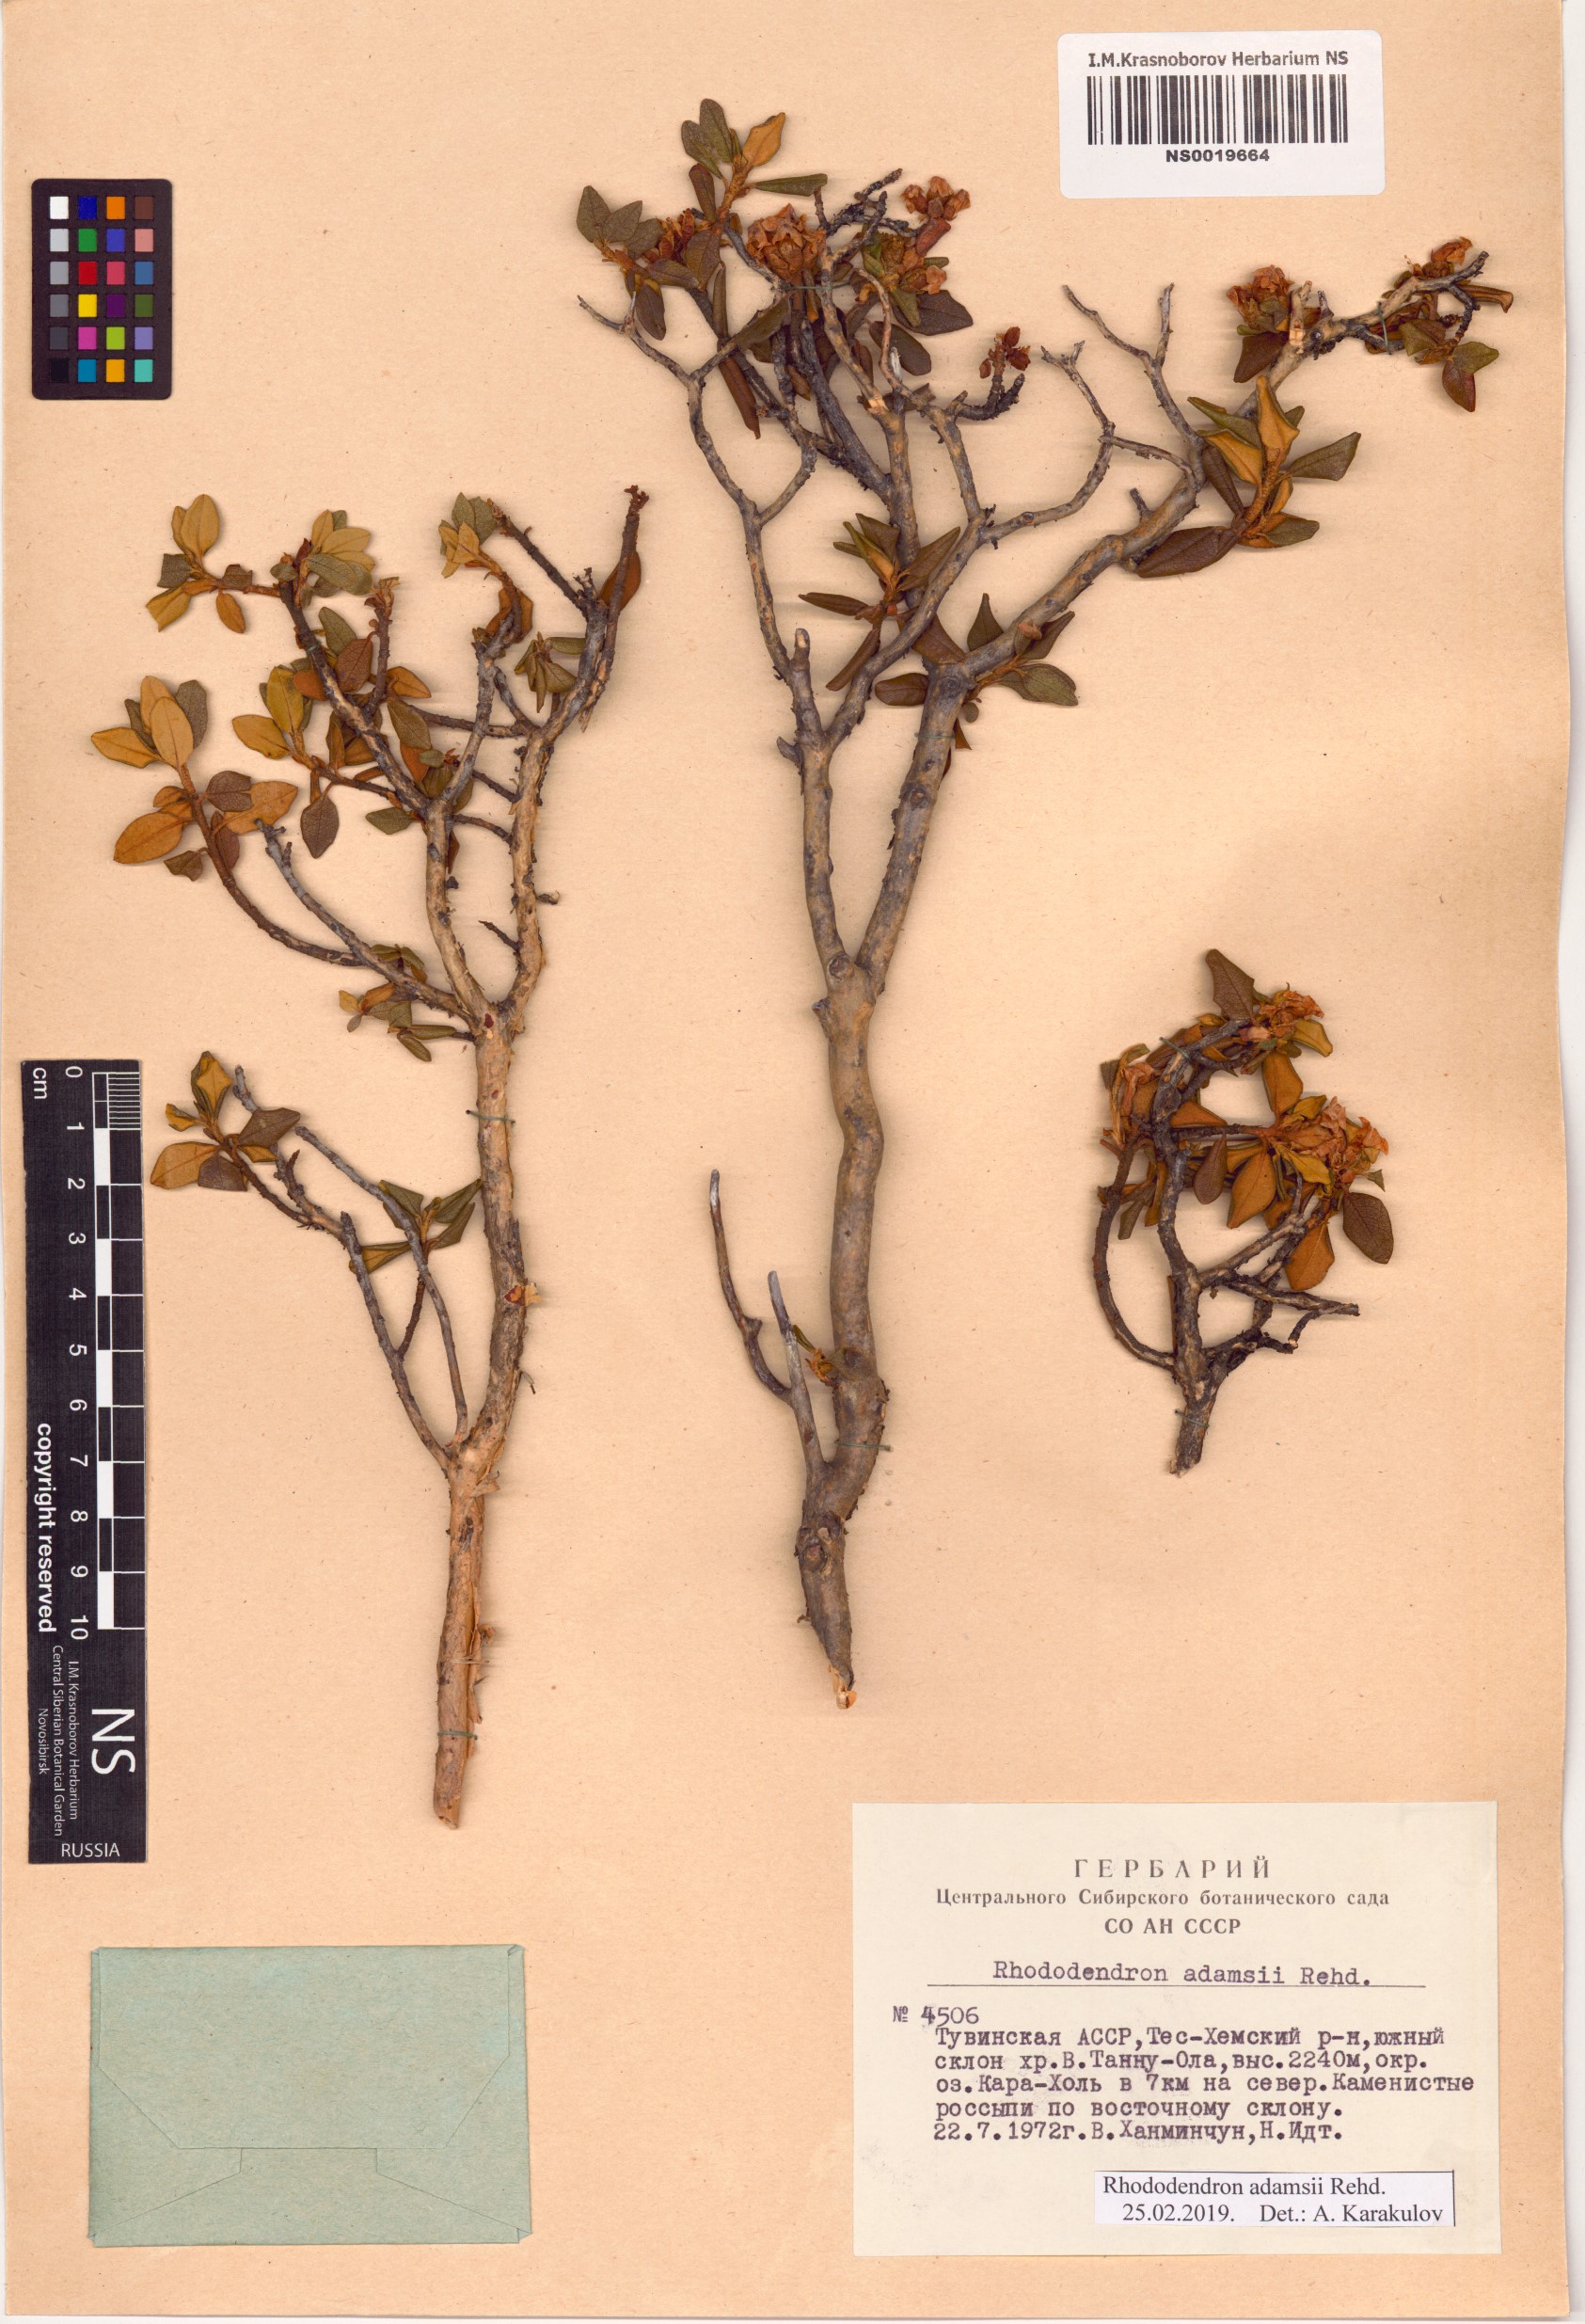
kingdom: Plantae
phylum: Tracheophyta
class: Magnoliopsida
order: Ericales
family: Ericaceae
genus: Rhododendron
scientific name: Rhododendron adamsii
